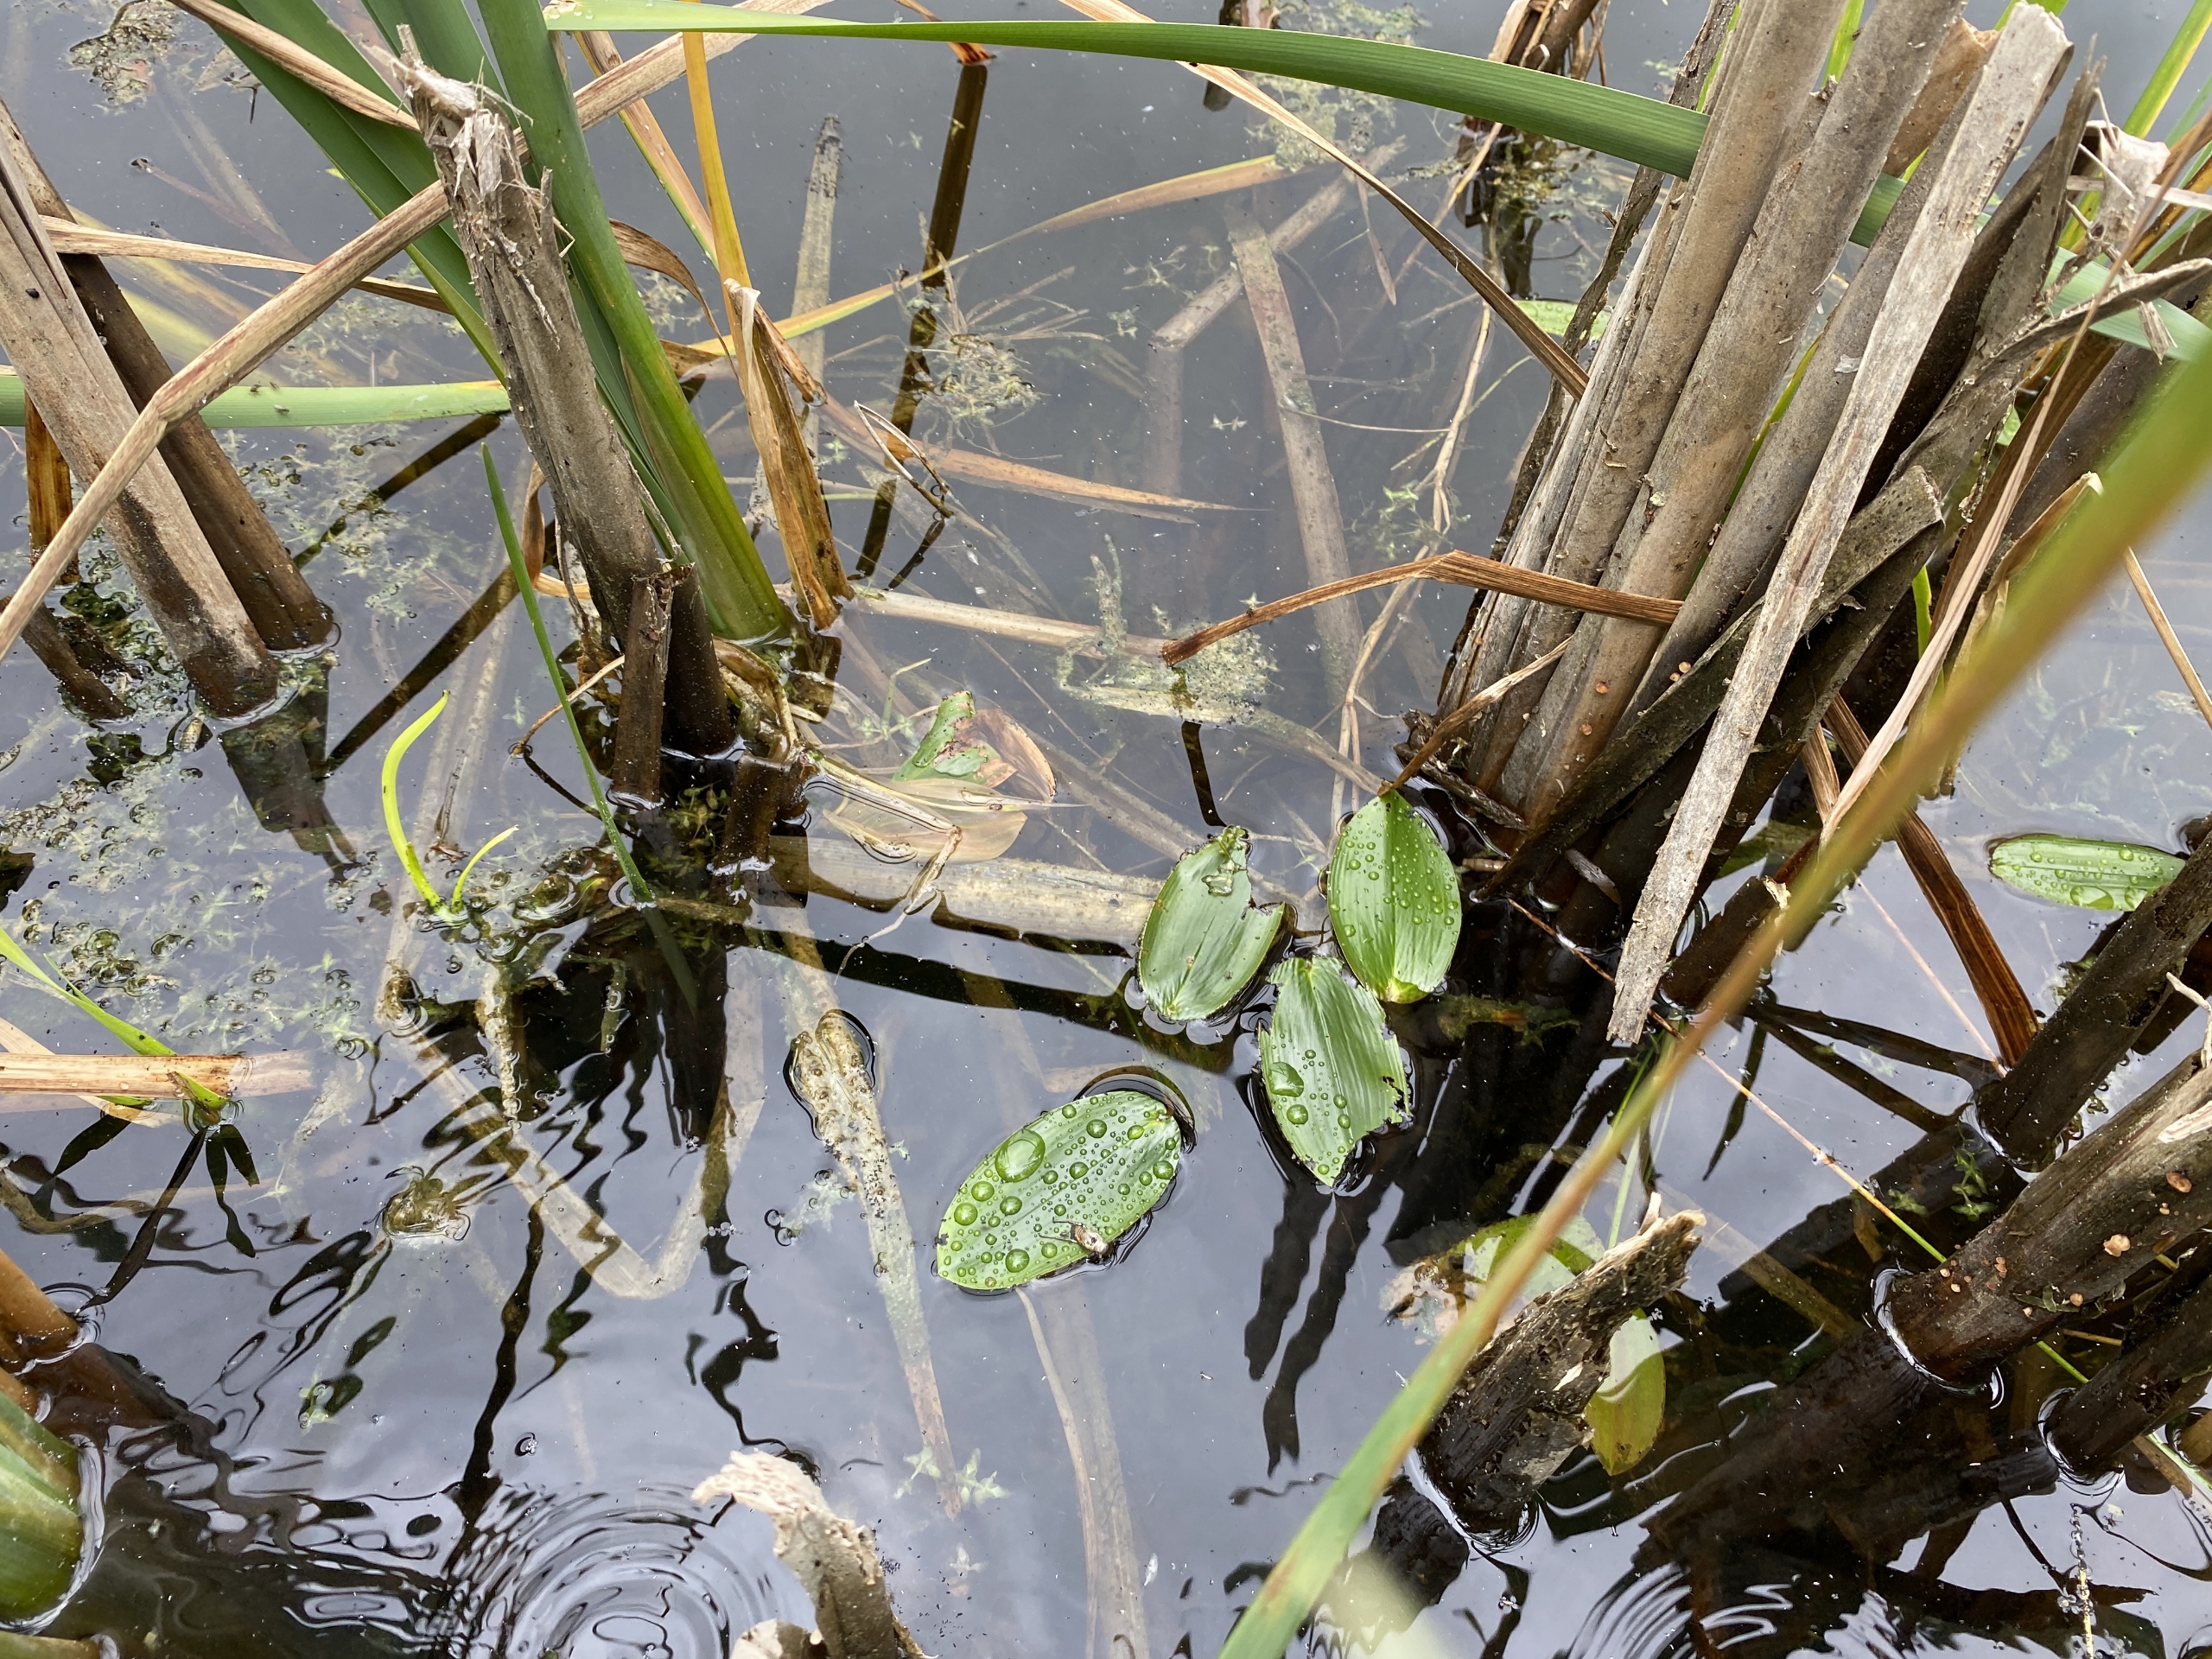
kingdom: Plantae
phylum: Tracheophyta
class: Liliopsida
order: Alismatales
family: Potamogetonaceae
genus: Potamogeton
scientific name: Potamogeton natans
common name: Svømmende vandaks
